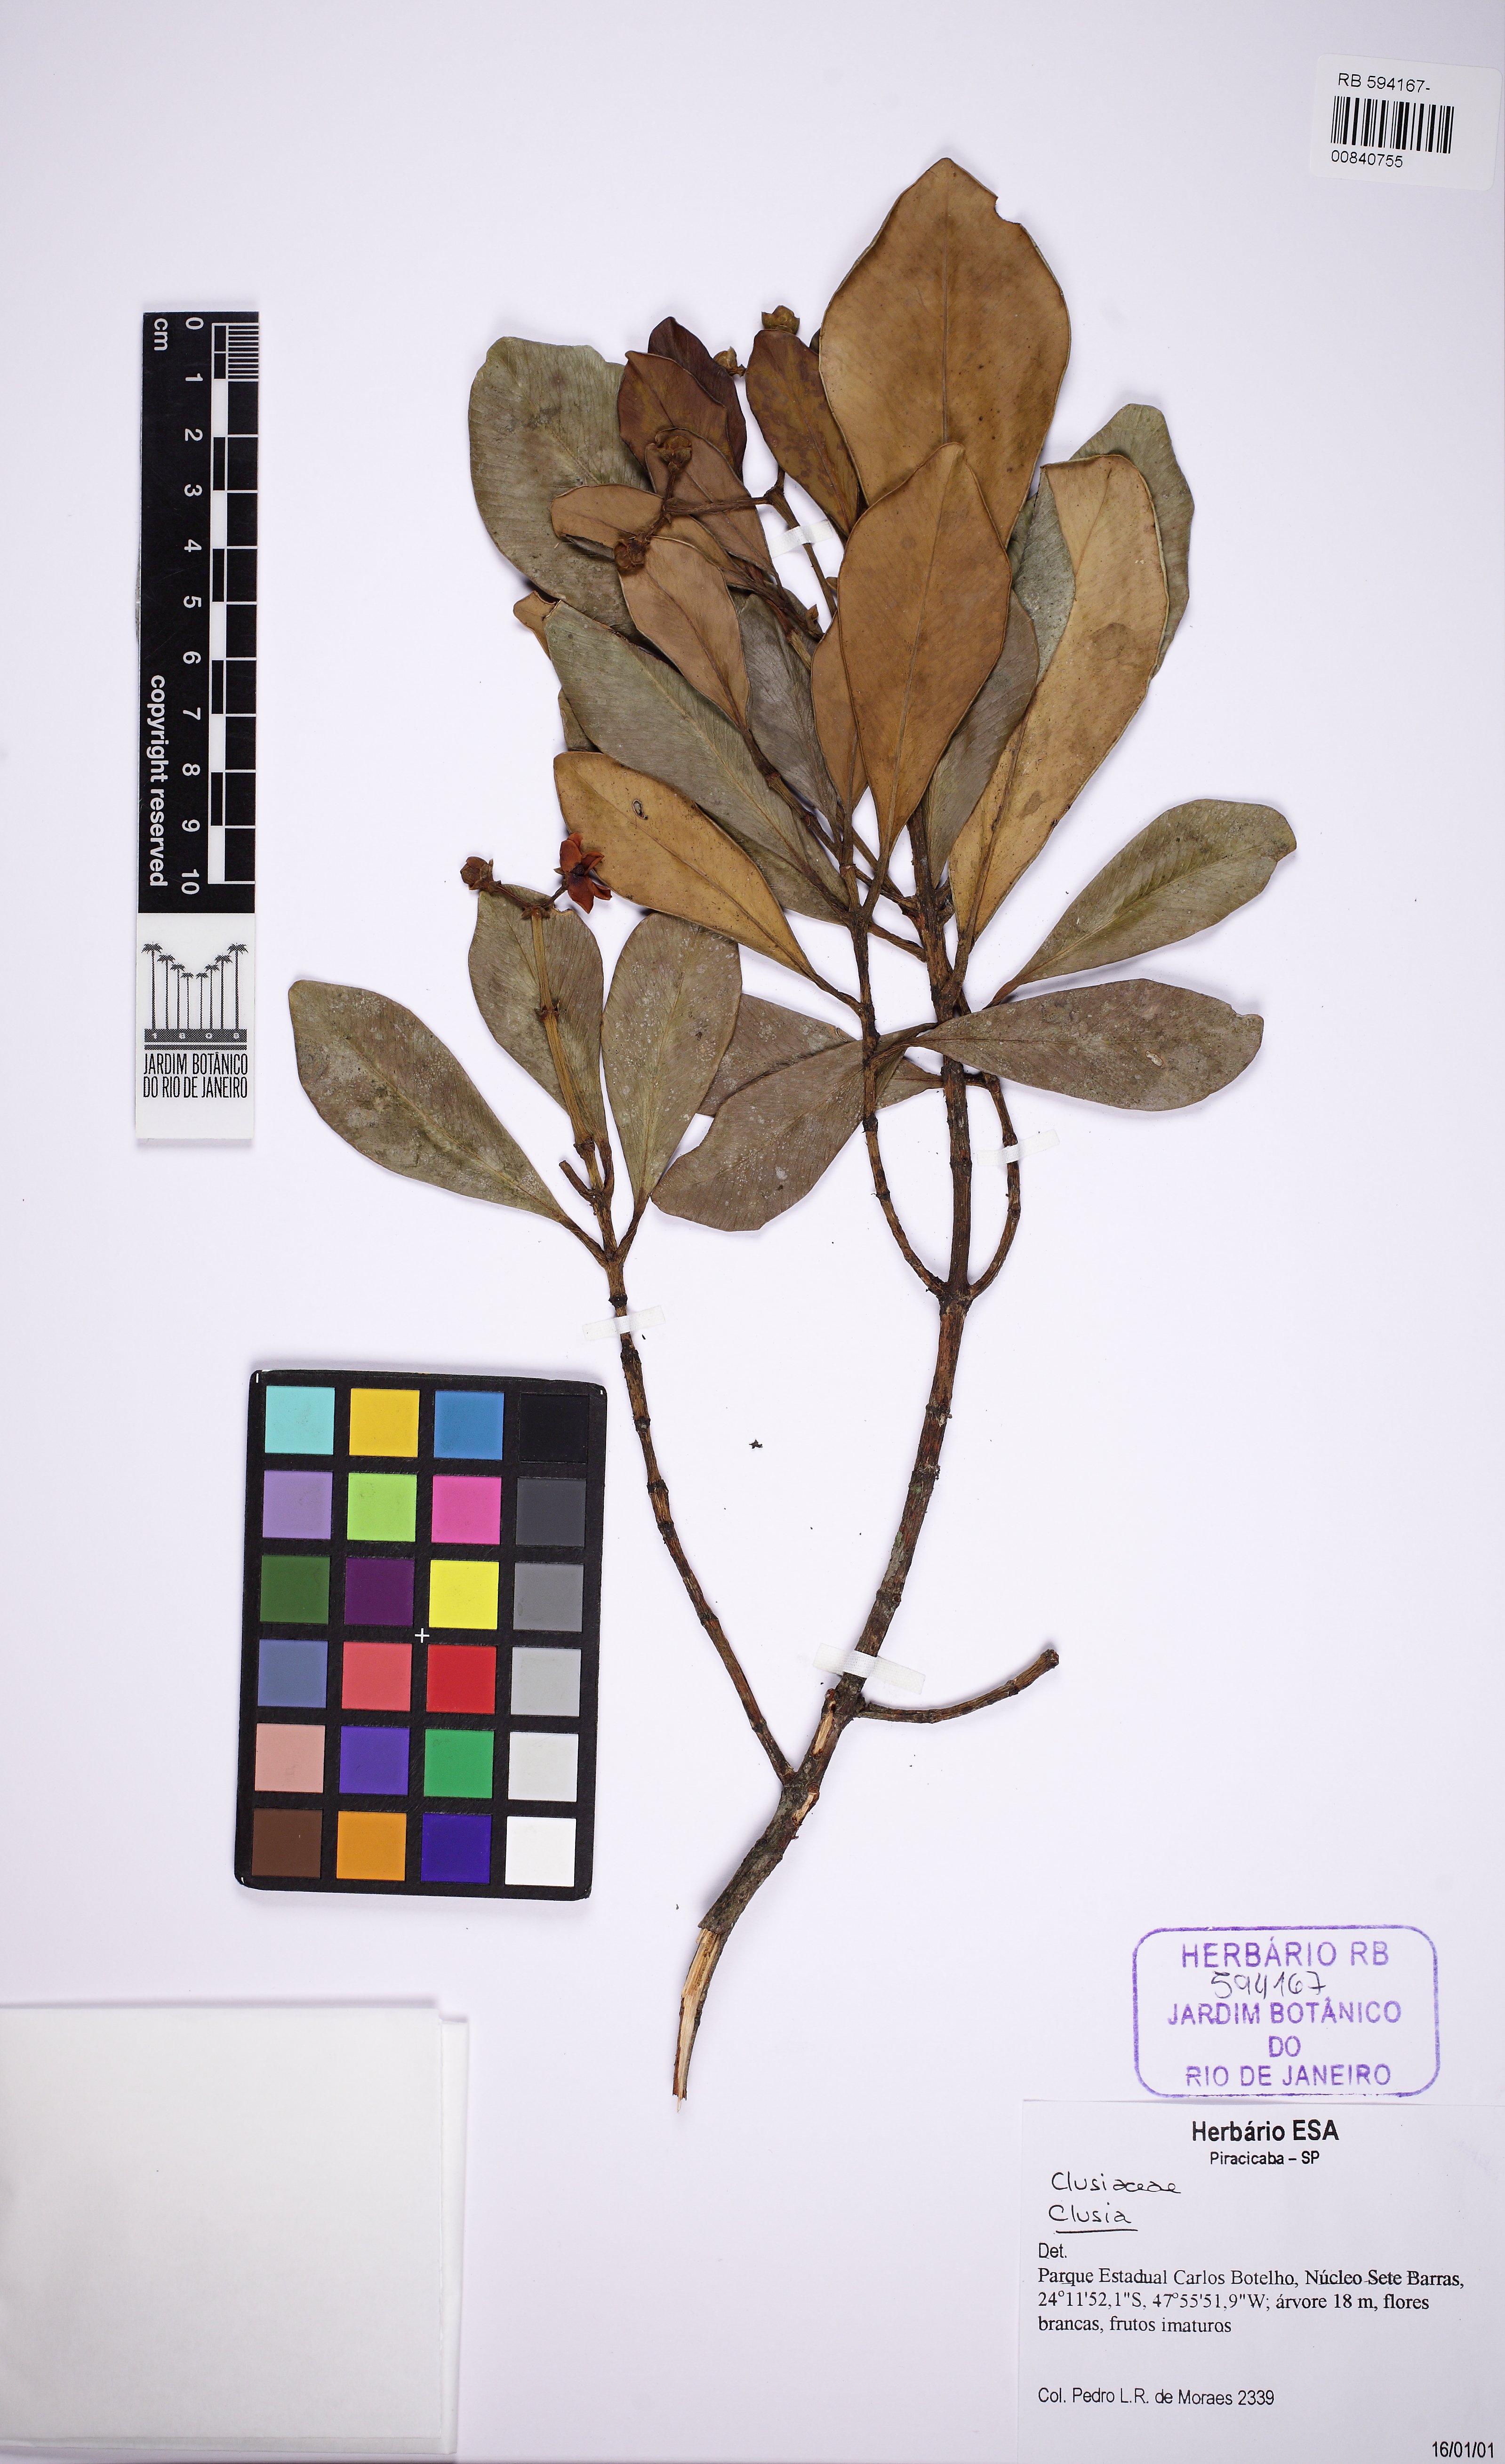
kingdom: Plantae
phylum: Tracheophyta
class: Magnoliopsida
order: Malpighiales
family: Clusiaceae
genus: Clusia
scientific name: Clusia criuva
